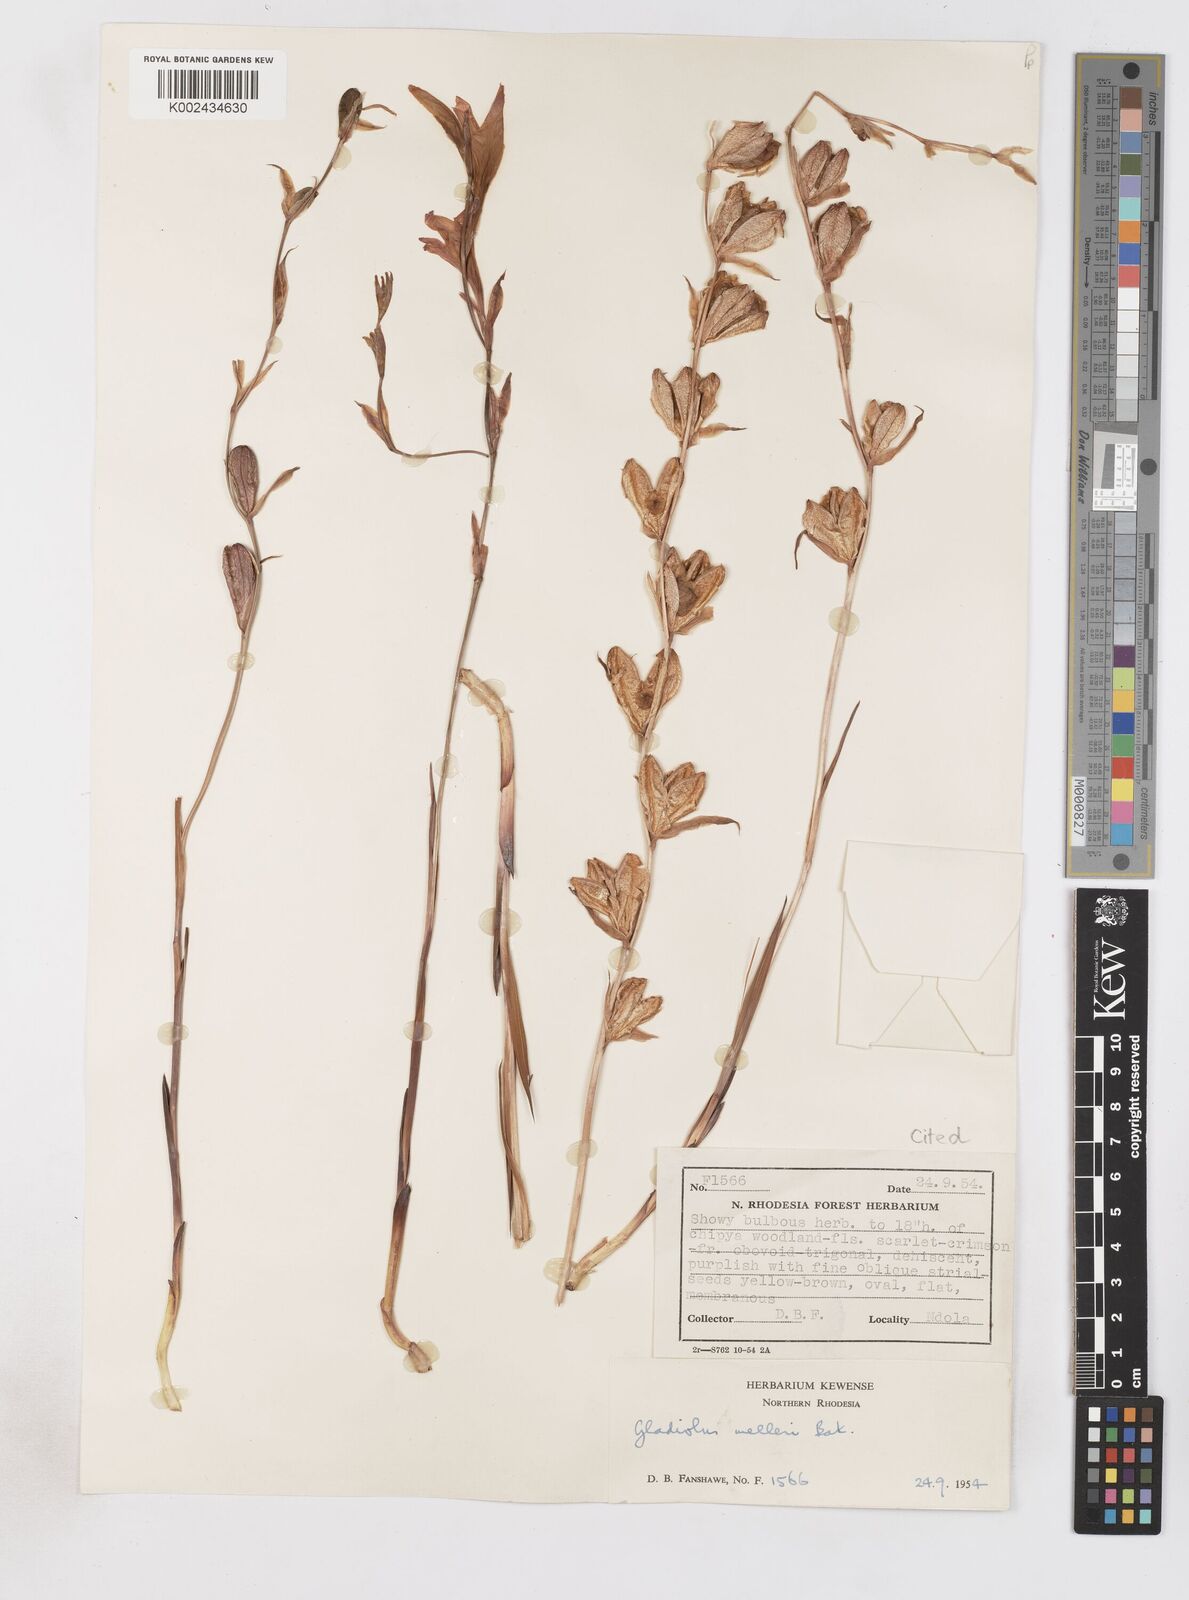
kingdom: Plantae
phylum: Tracheophyta
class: Liliopsida
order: Asparagales
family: Iridaceae
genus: Gladiolus
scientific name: Gladiolus melleri
